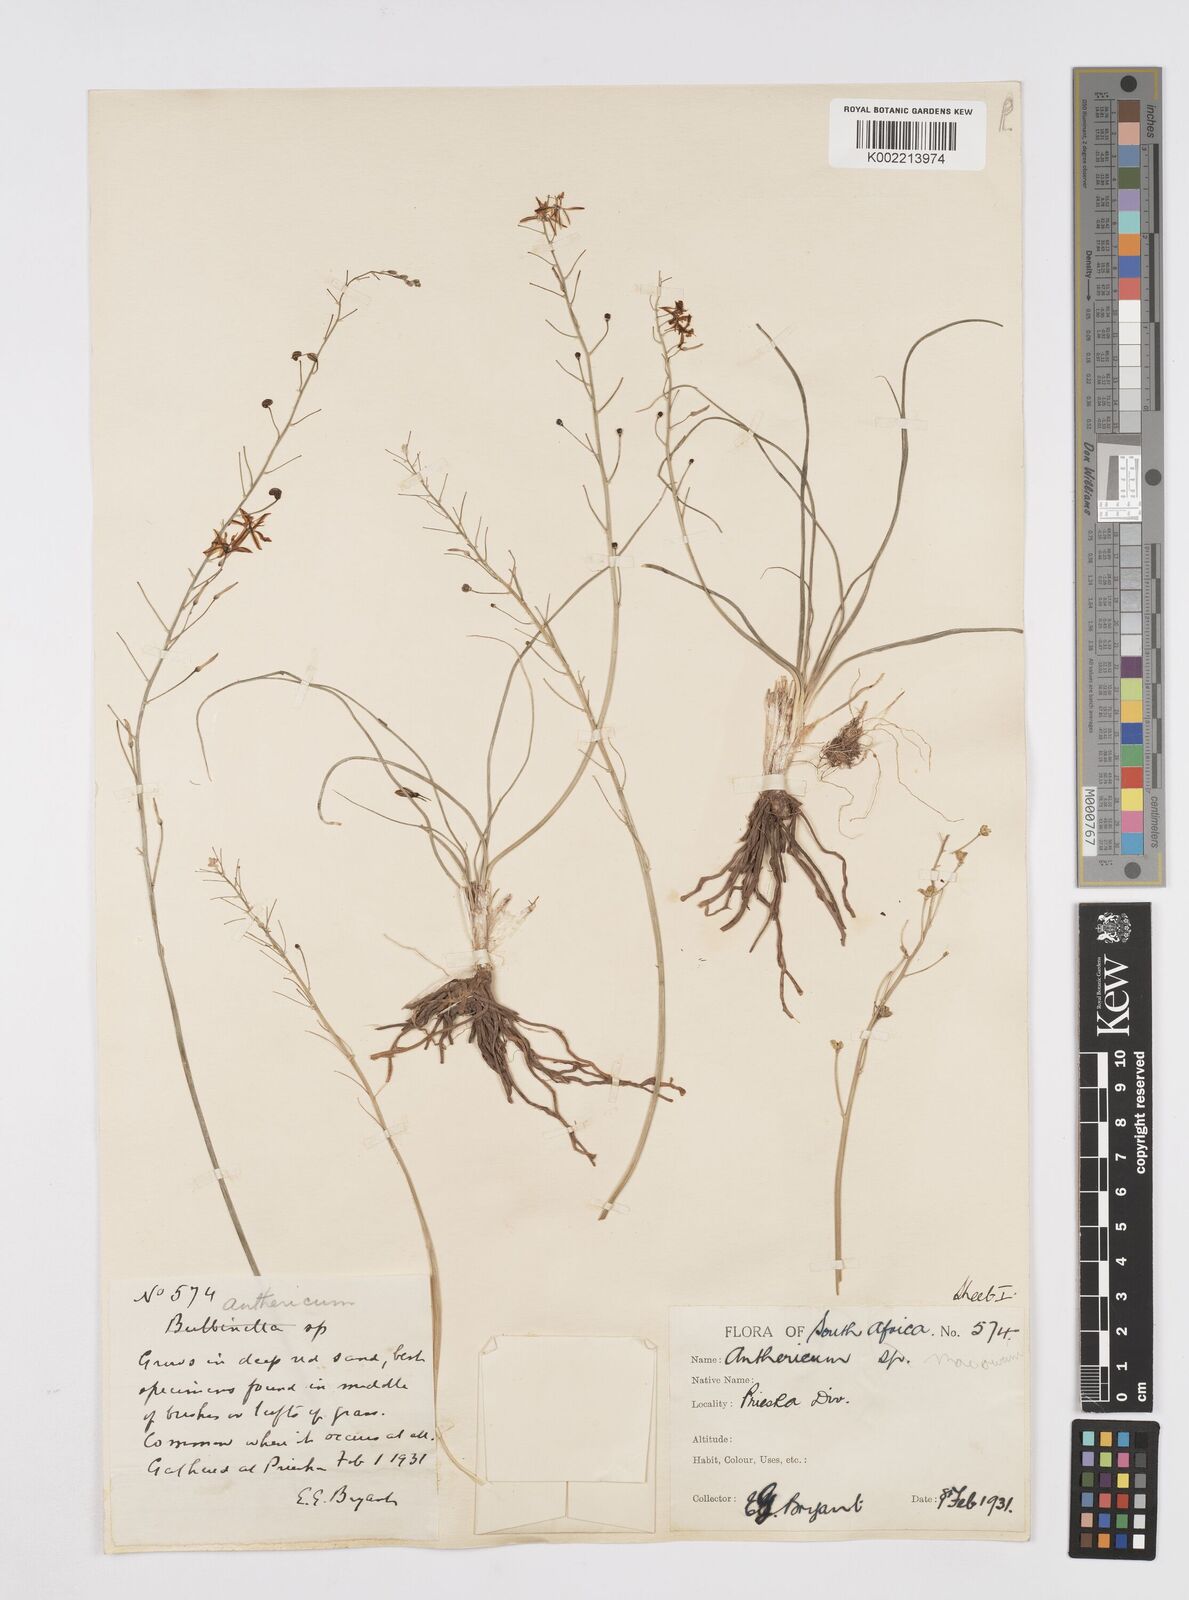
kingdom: Plantae
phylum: Tracheophyta
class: Liliopsida
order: Asparagales
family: Asphodelaceae
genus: Trachyandra
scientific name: Trachyandra asperata
